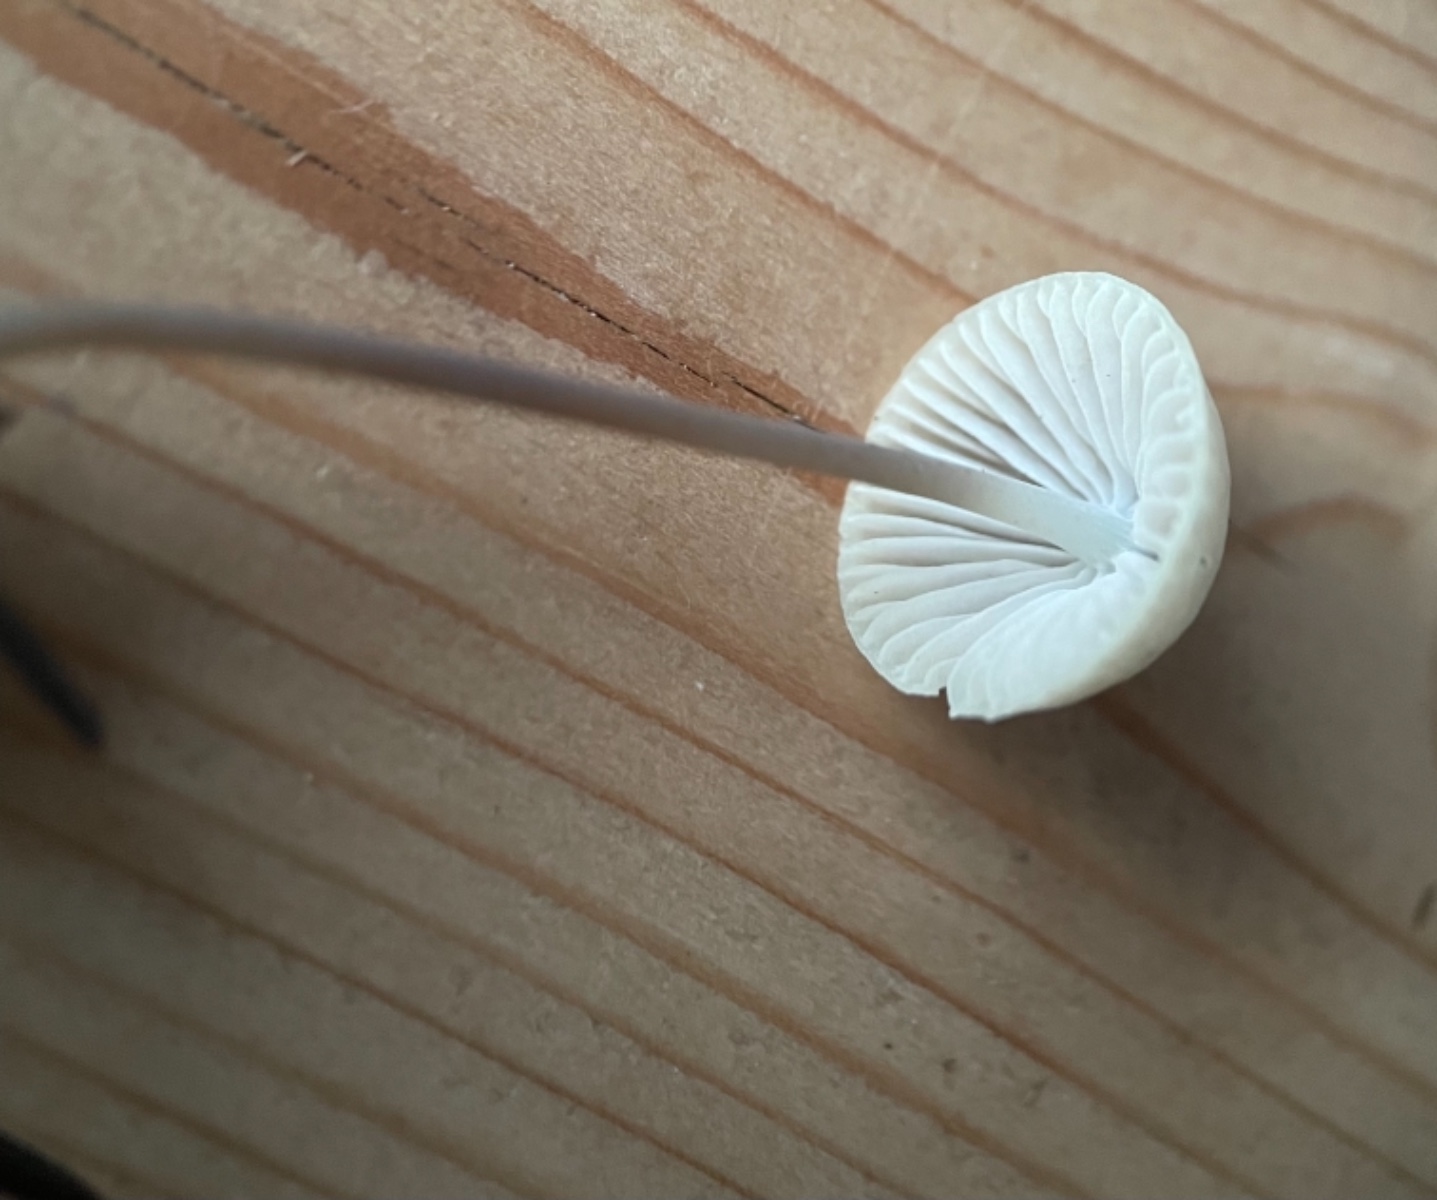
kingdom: Fungi
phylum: Basidiomycota
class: Agaricomycetes
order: Agaricales
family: Mycenaceae
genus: Mycena
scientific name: Mycena
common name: huesvamp
